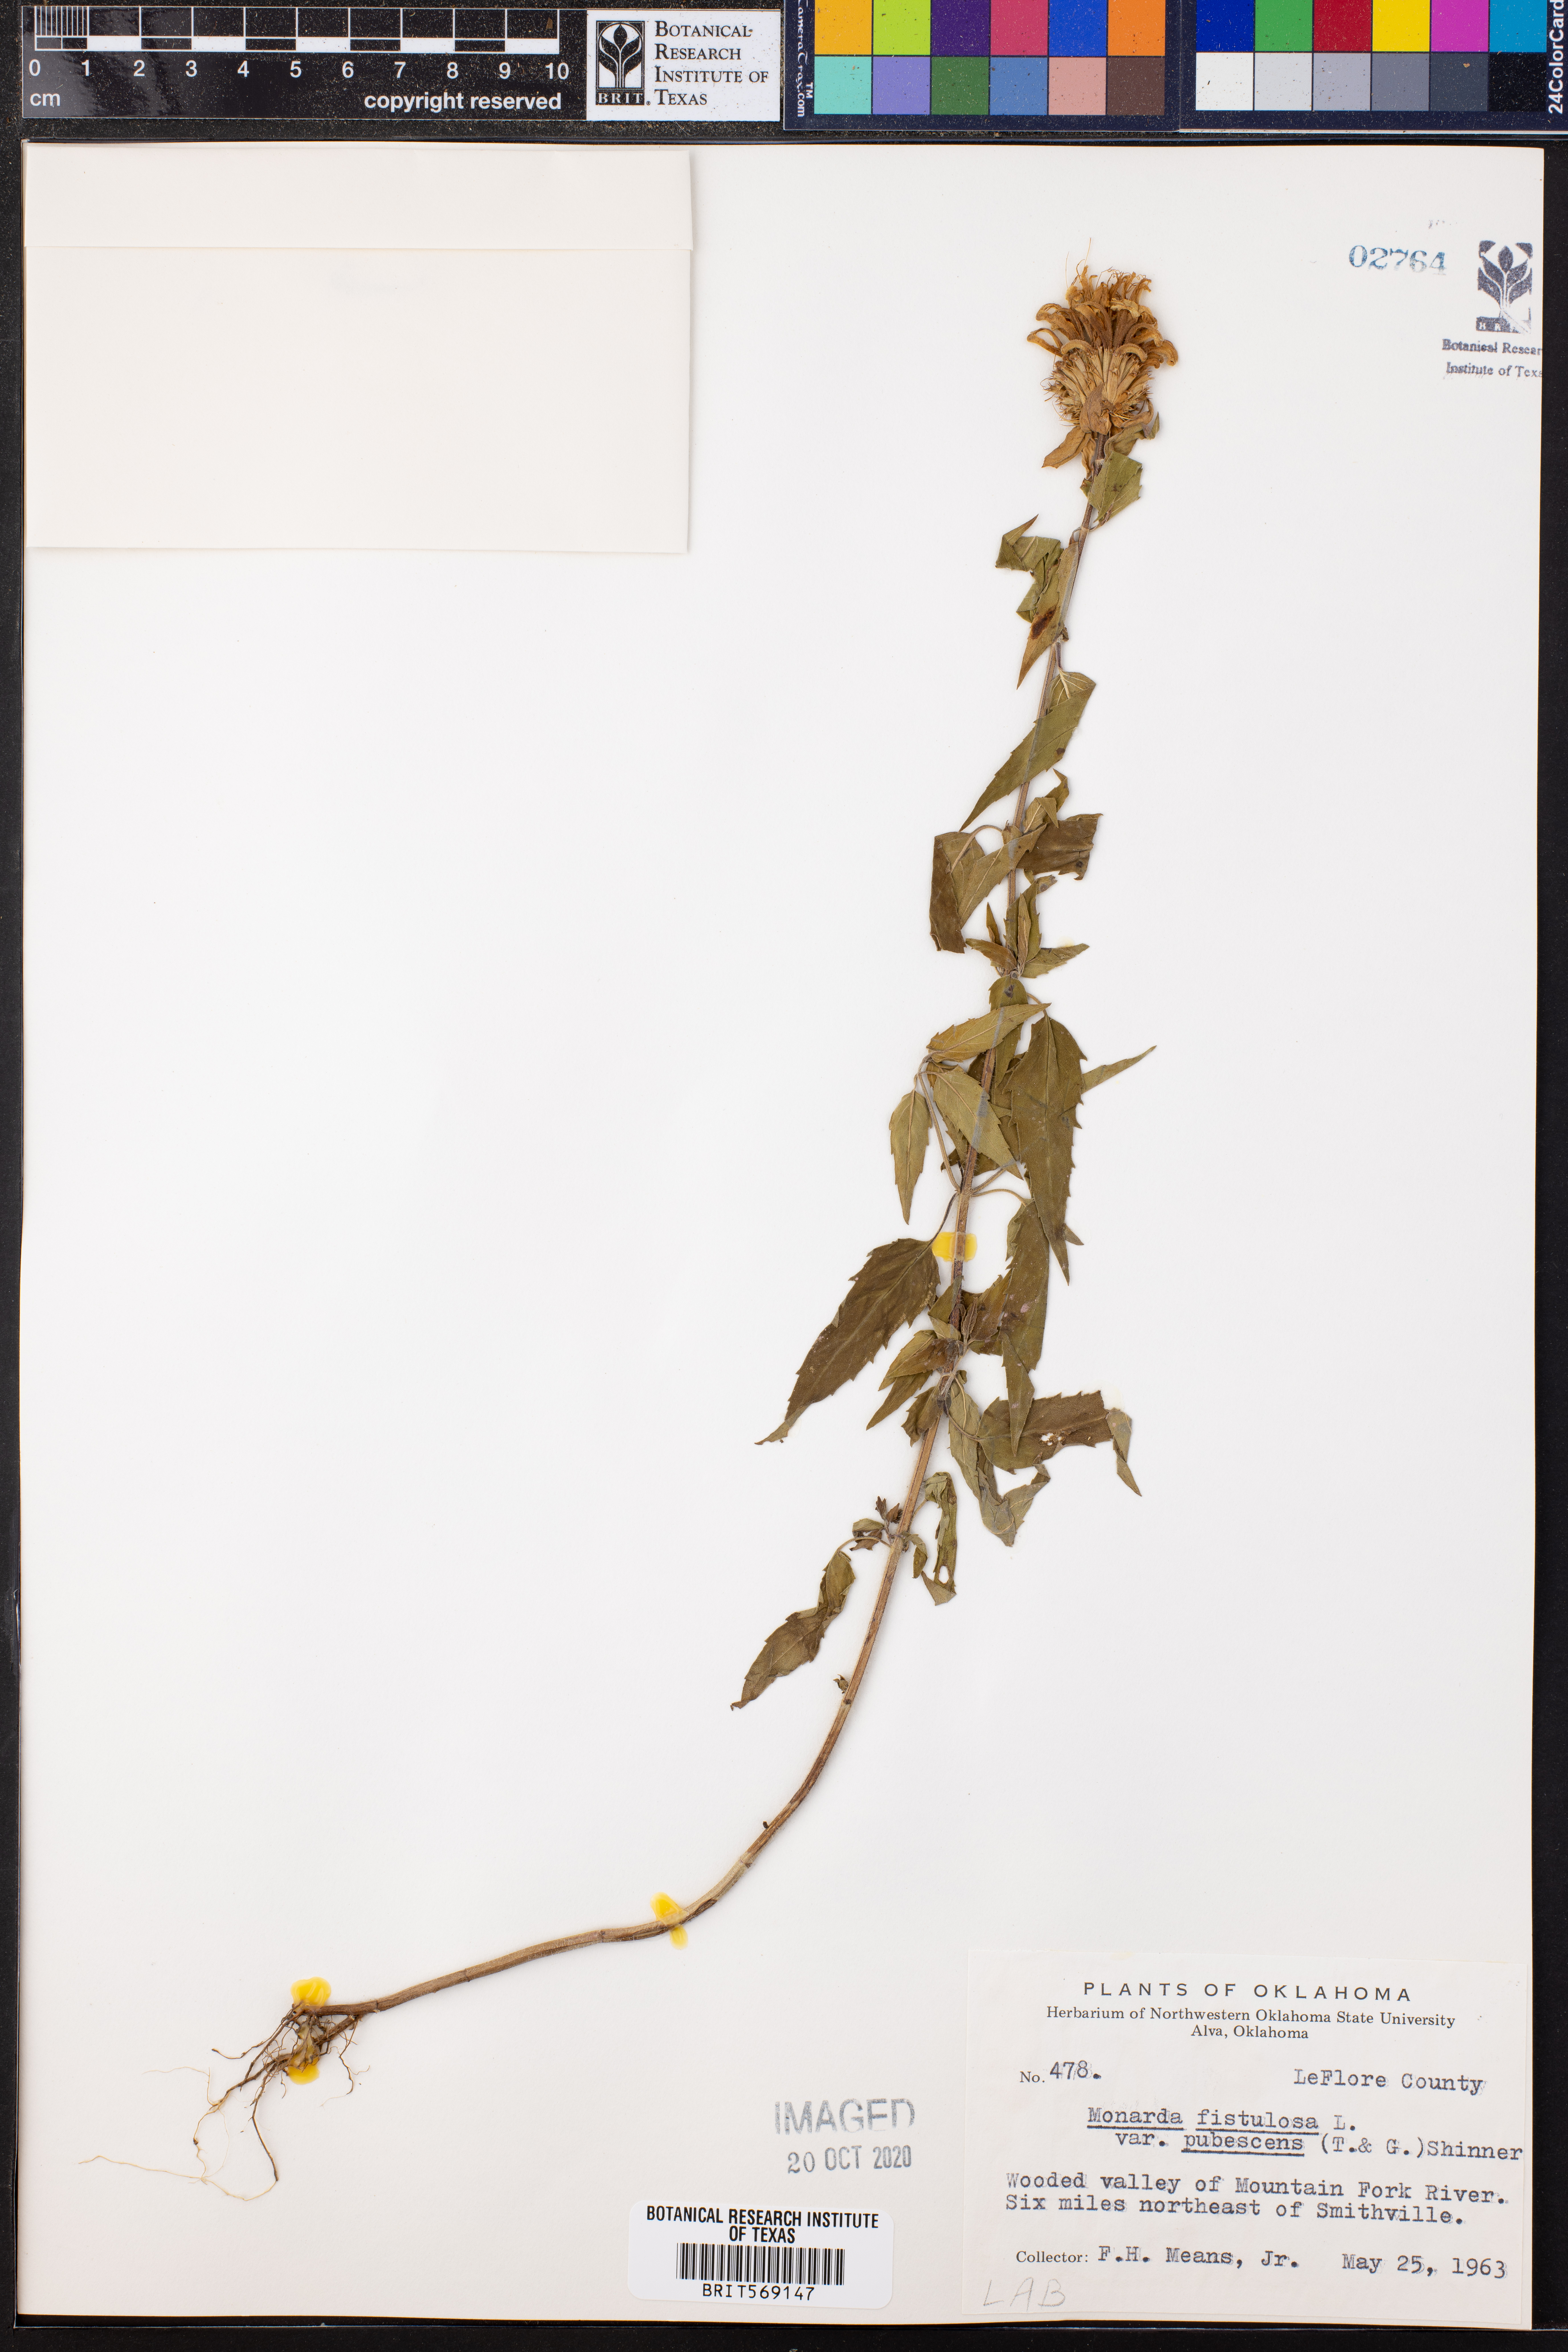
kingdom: Plantae
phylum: Tracheophyta
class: Magnoliopsida
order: Lamiales
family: Lamiaceae
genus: Monarda
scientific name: Monarda fistulosa
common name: Purple beebalm
